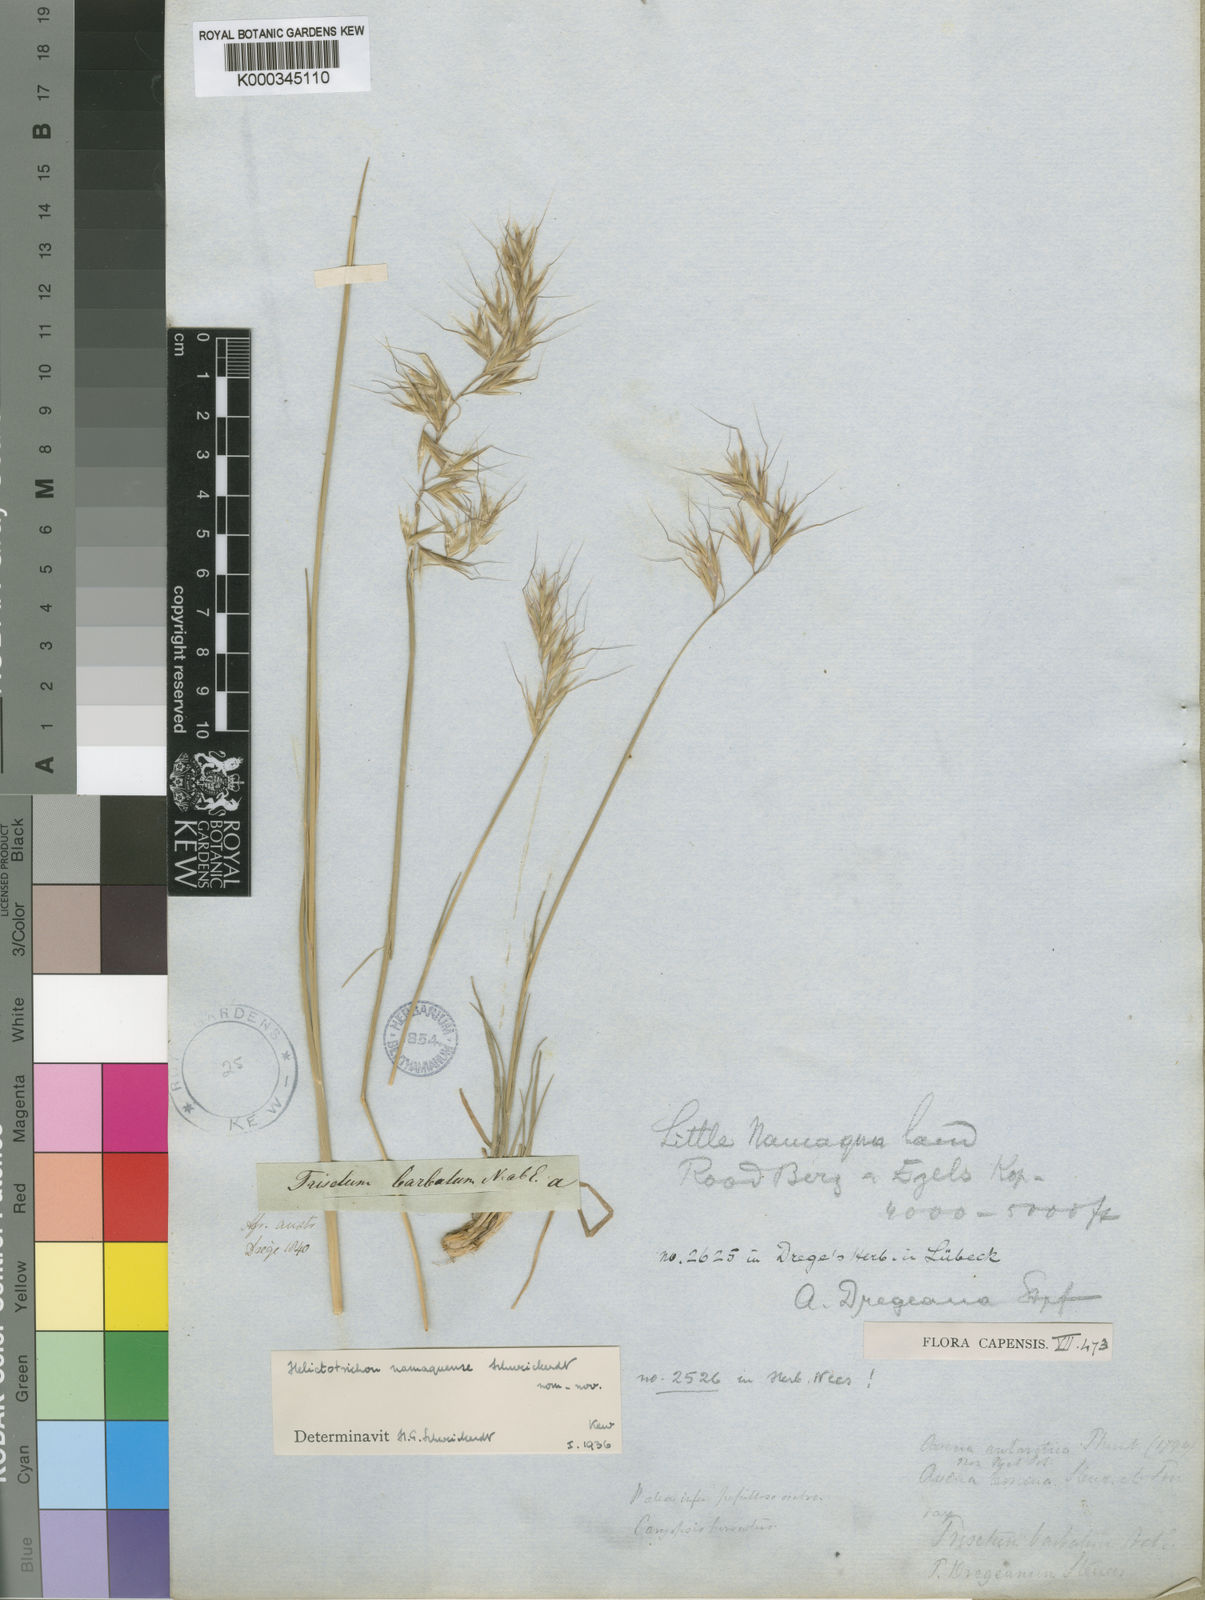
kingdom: Plantae
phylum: Tracheophyta
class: Liliopsida
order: Poales
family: Poaceae
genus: Trisetopsis
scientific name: Trisetopsis namaquensis
